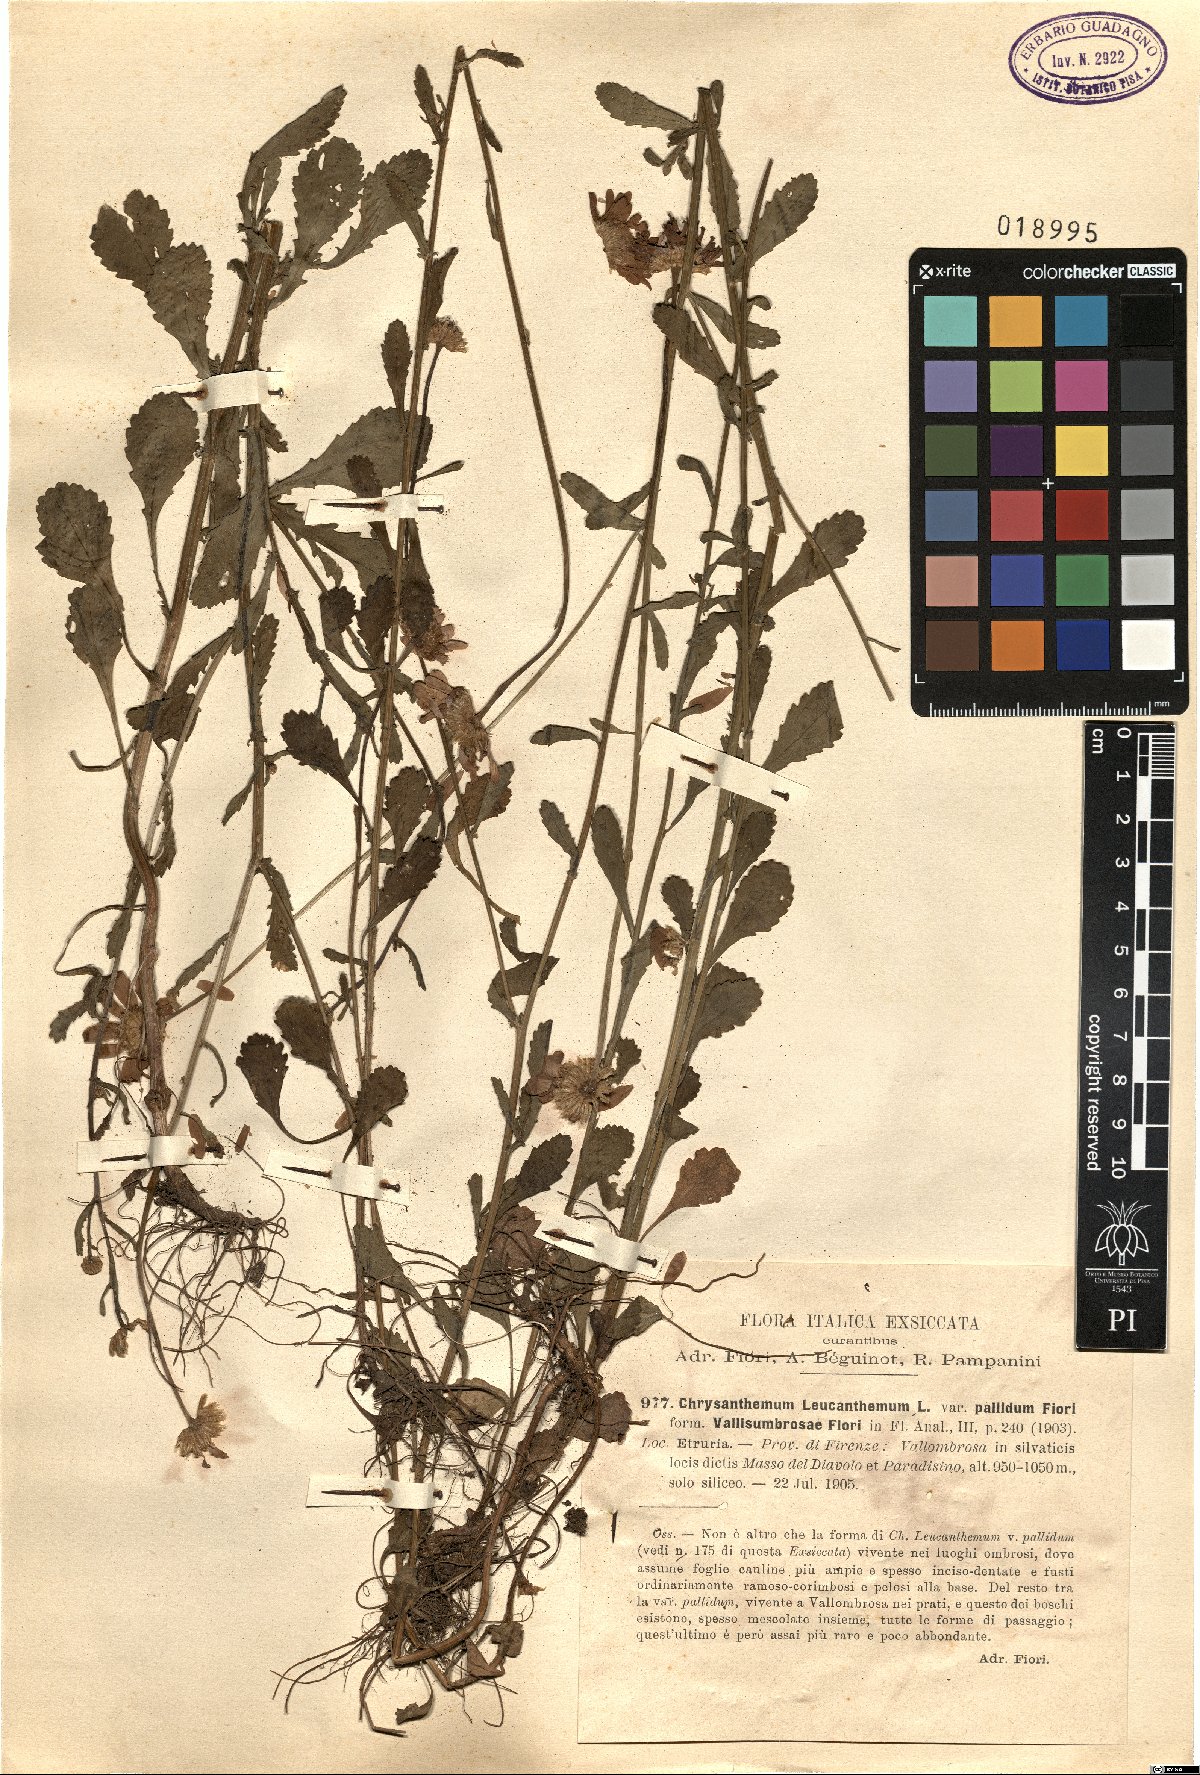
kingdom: Plantae
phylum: Tracheophyta
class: Magnoliopsida
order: Asterales
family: Asteraceae
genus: Leucanthemum
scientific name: Leucanthemum vulgare
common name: Oxeye daisy
